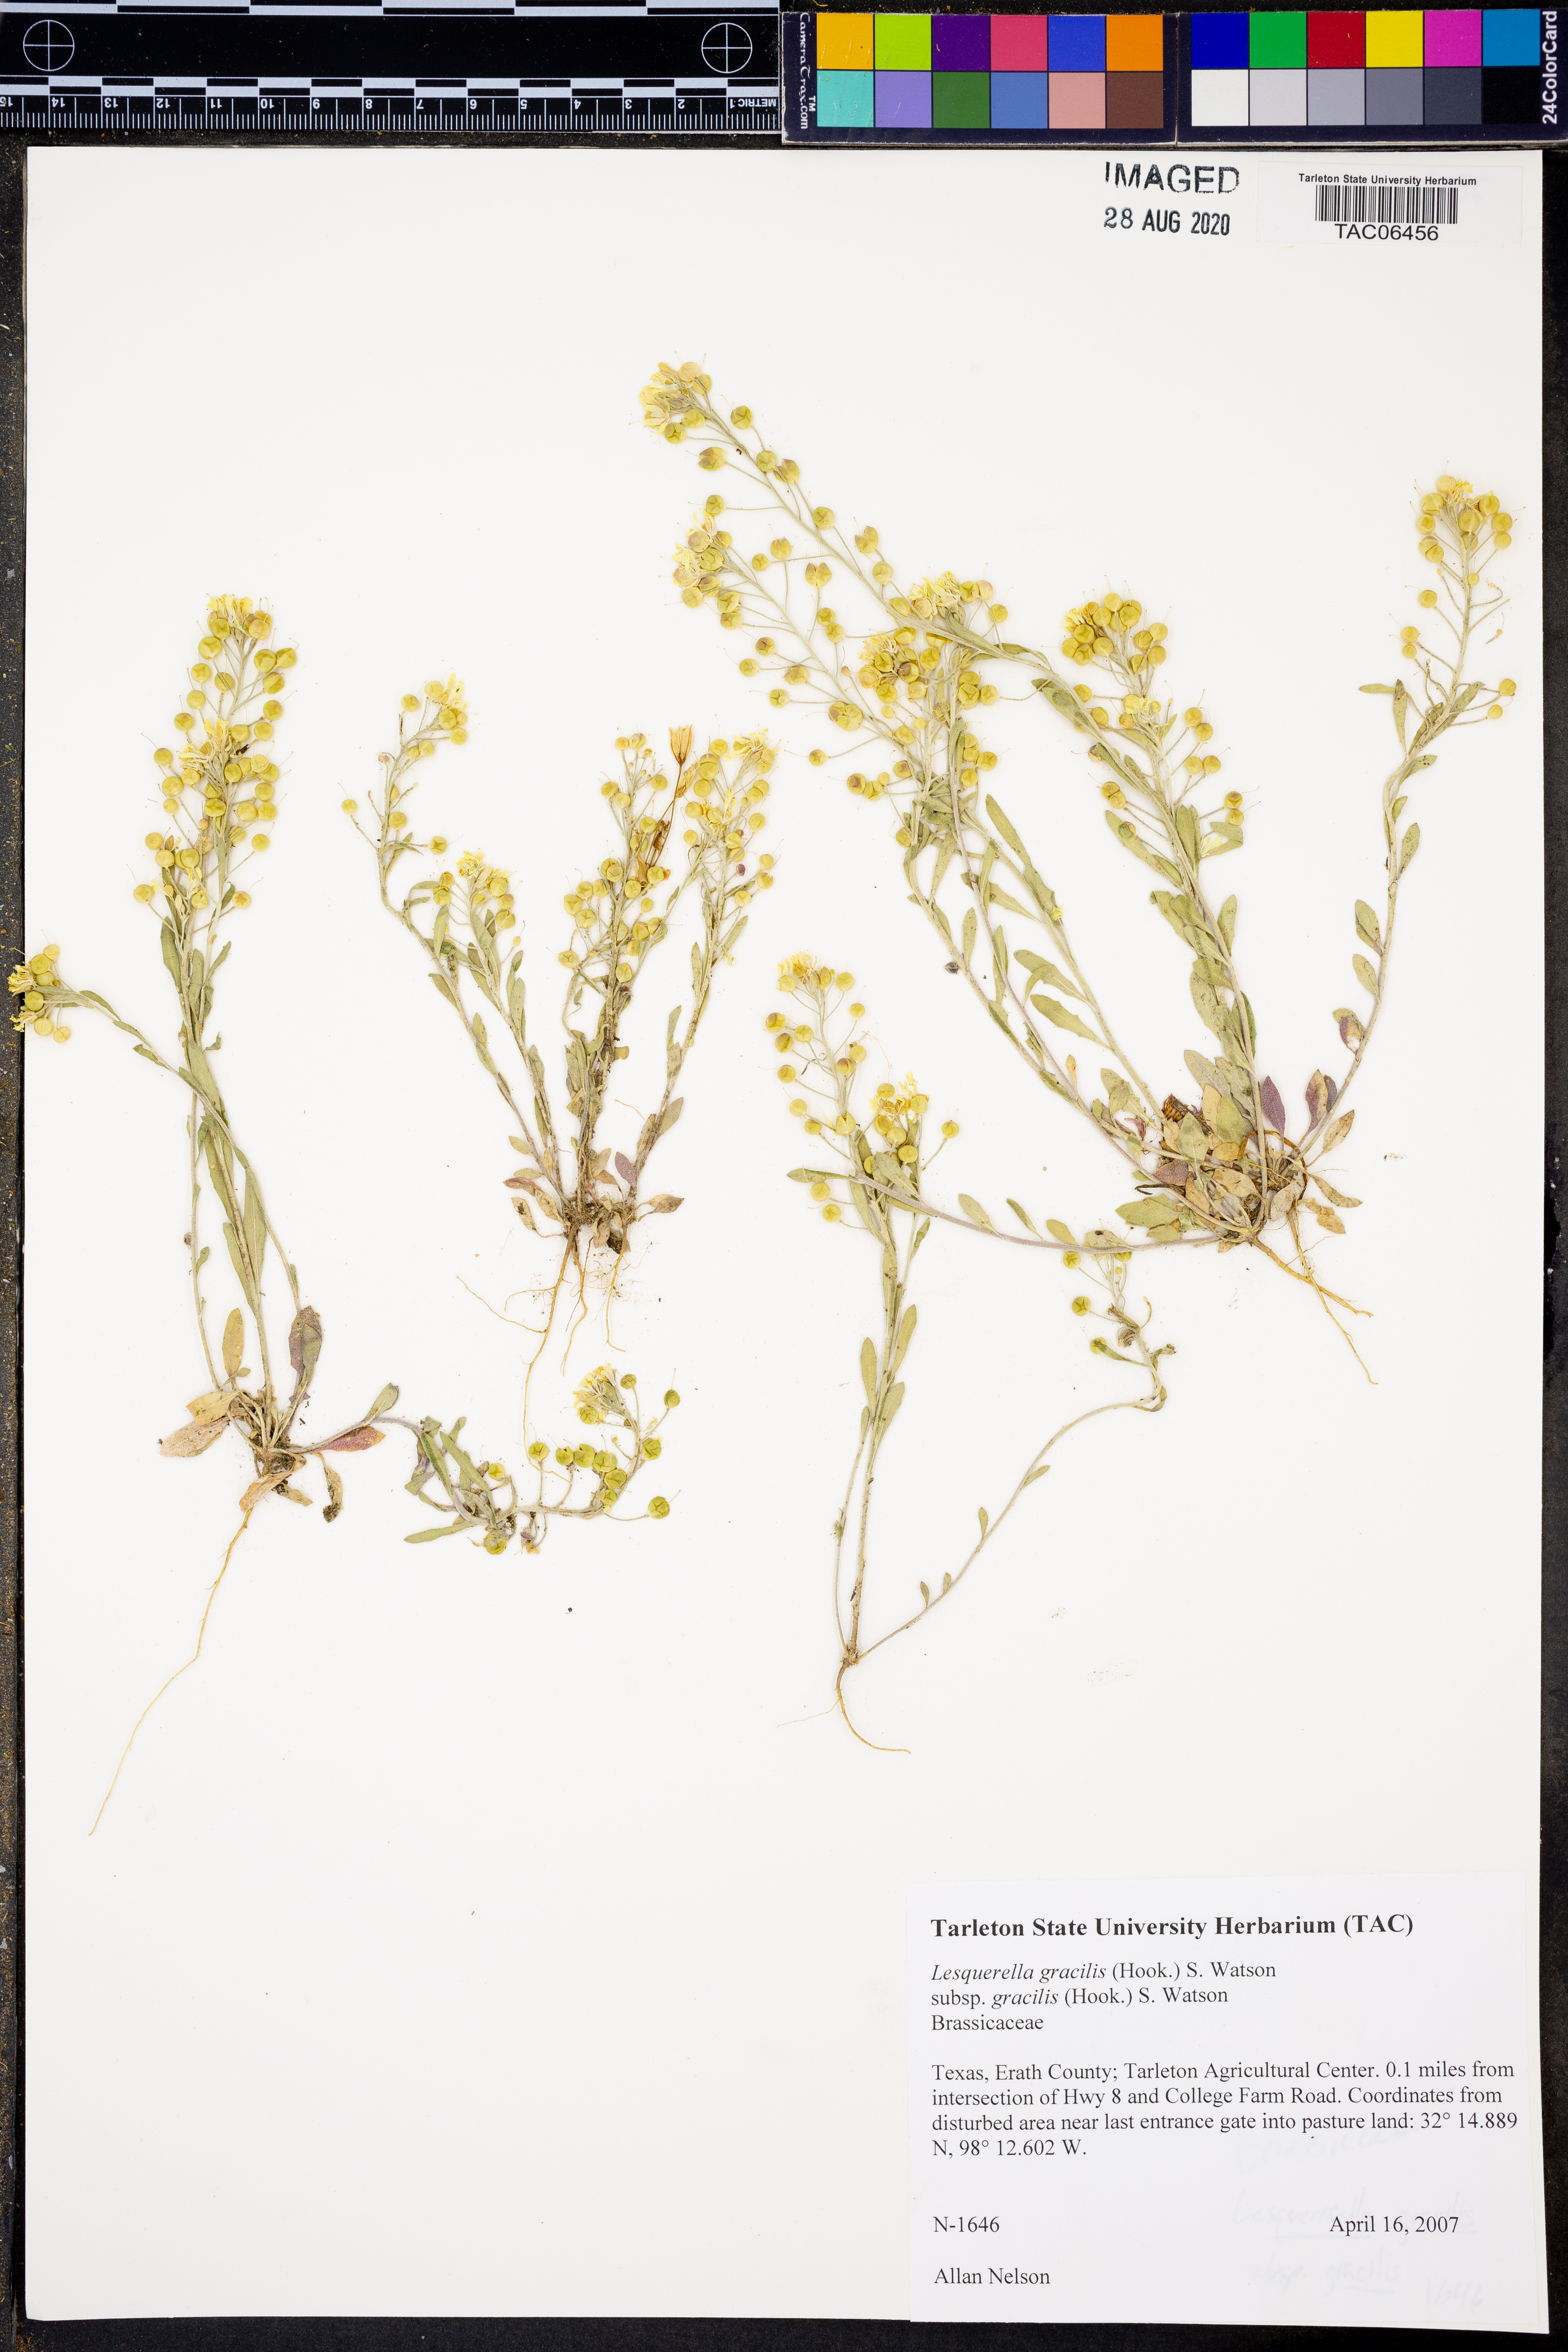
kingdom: Plantae
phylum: Tracheophyta
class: Magnoliopsida
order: Brassicales
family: Brassicaceae
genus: Physaria
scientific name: Physaria gracilis
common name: Spreading bladderpod
